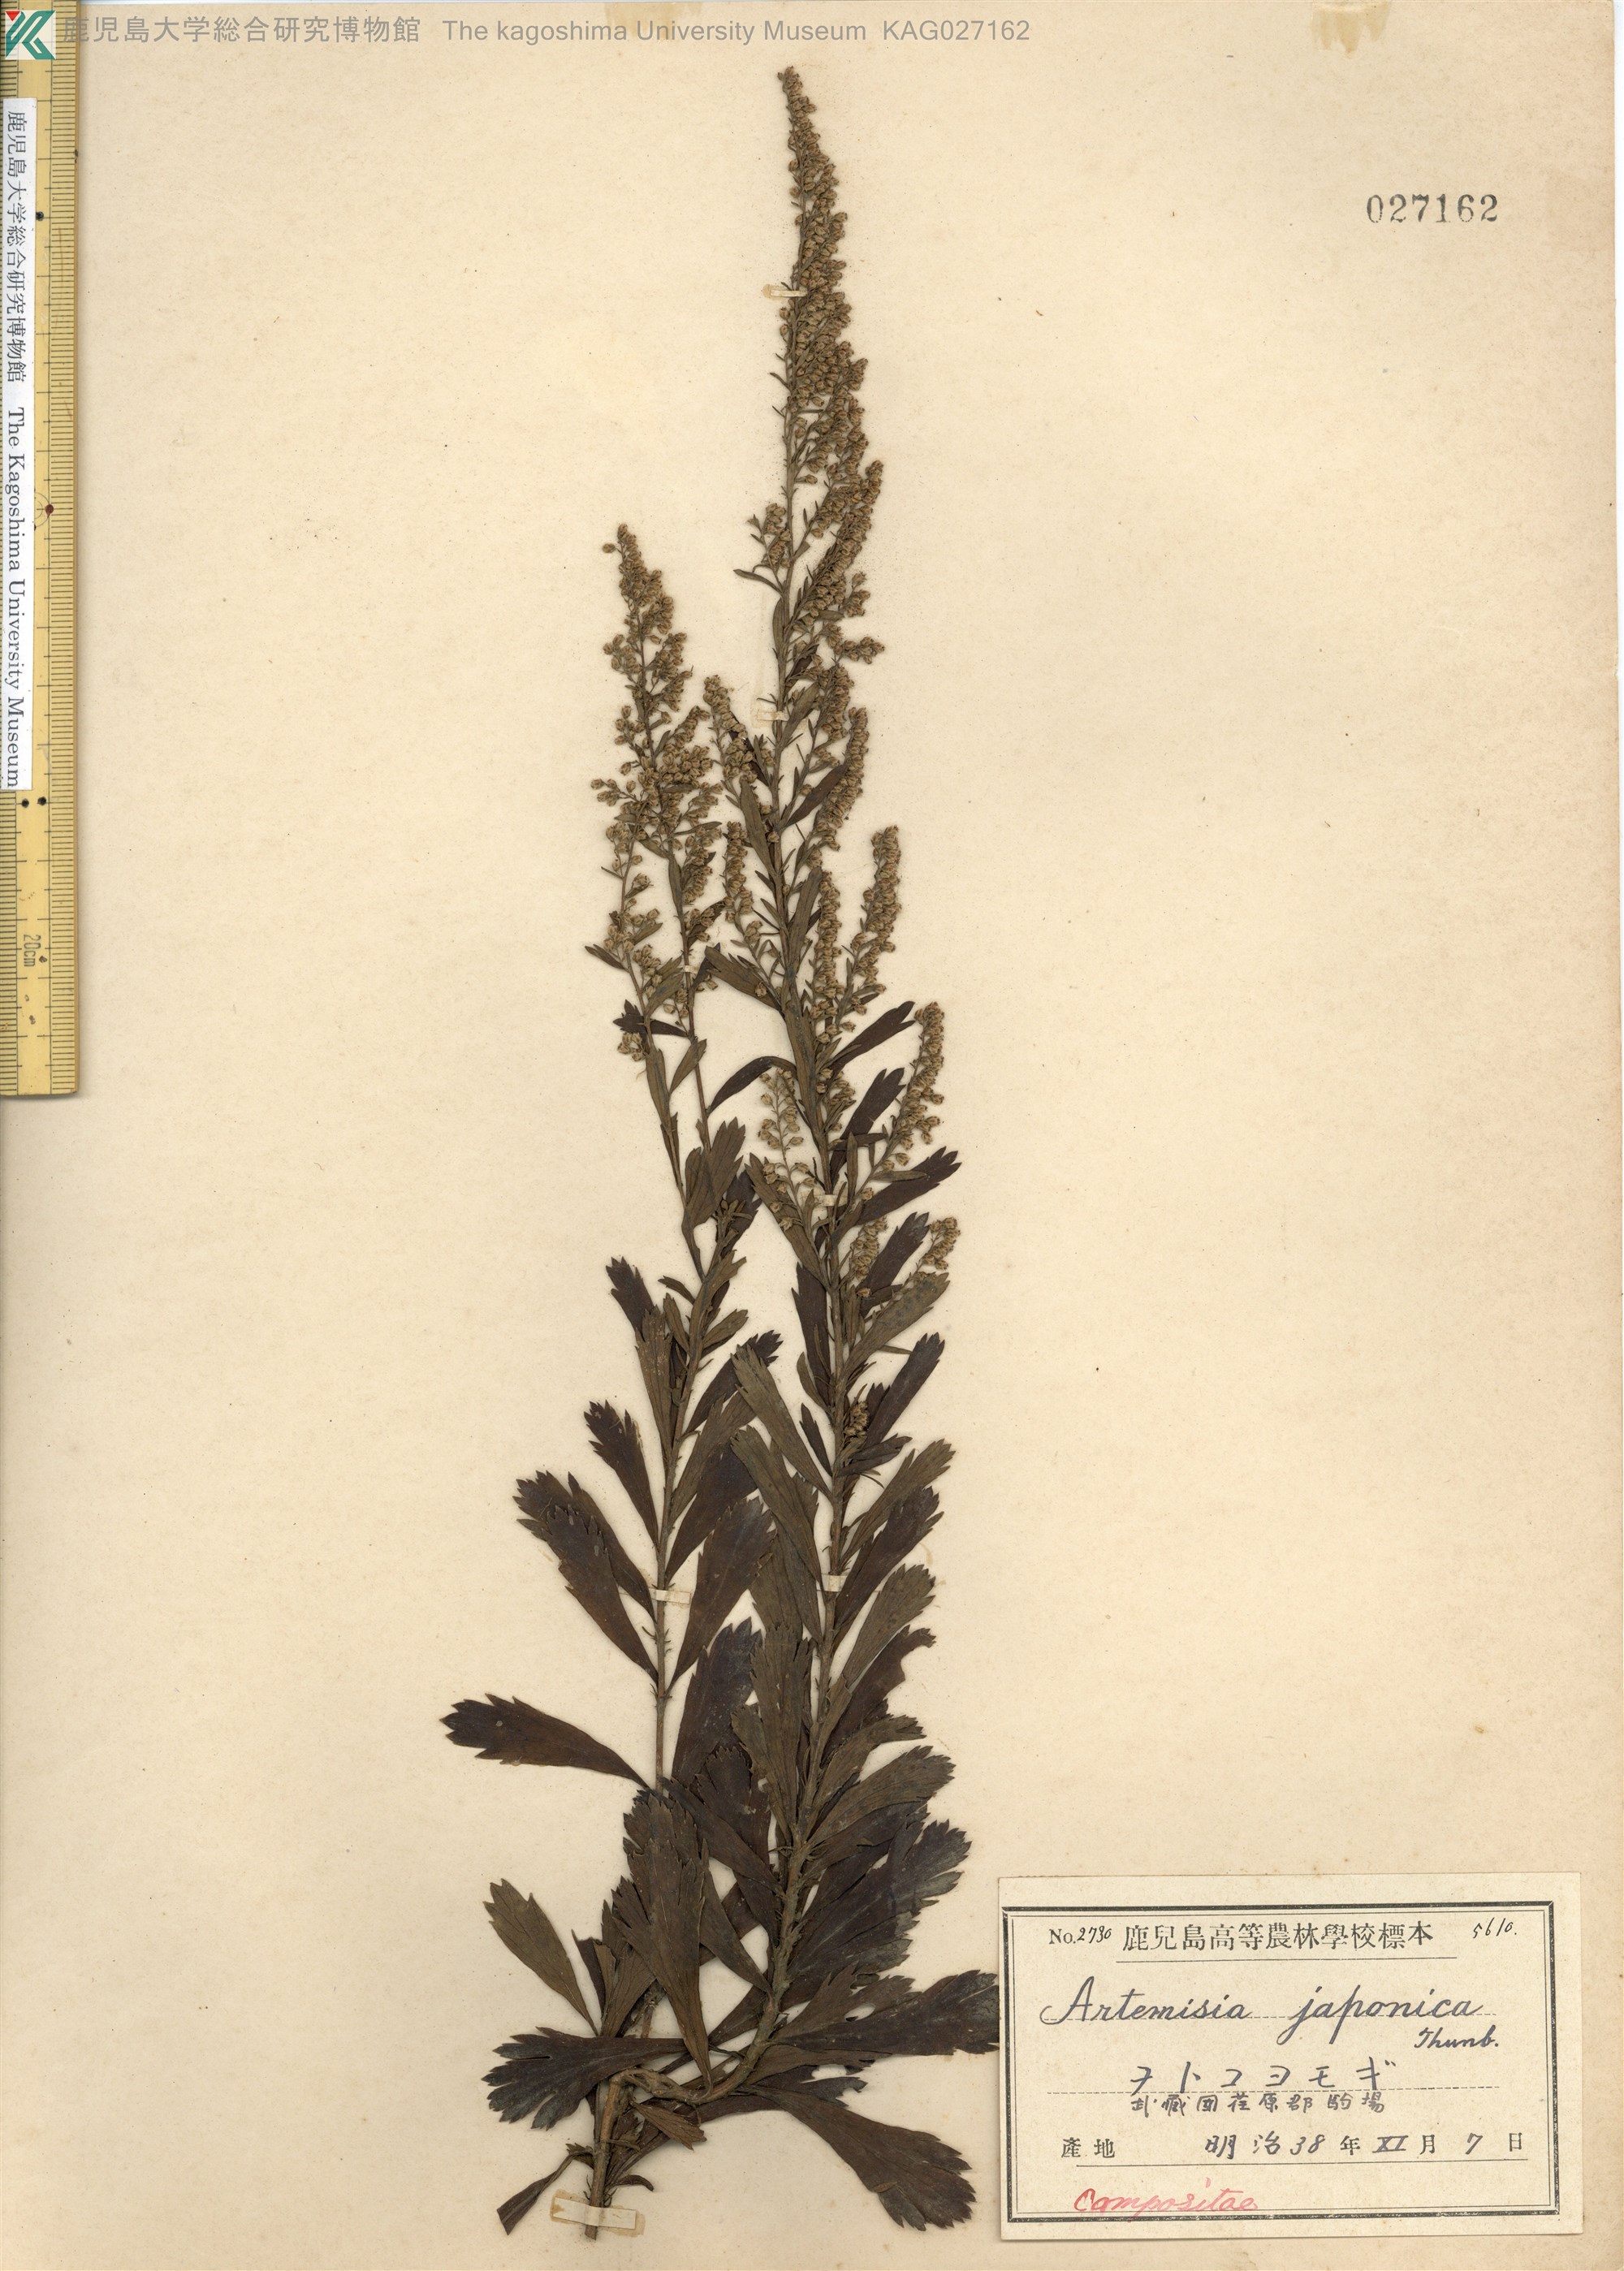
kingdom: Plantae
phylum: Tracheophyta
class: Magnoliopsida
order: Asterales
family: Asteraceae
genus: Artemisia
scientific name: Artemisia japonica
